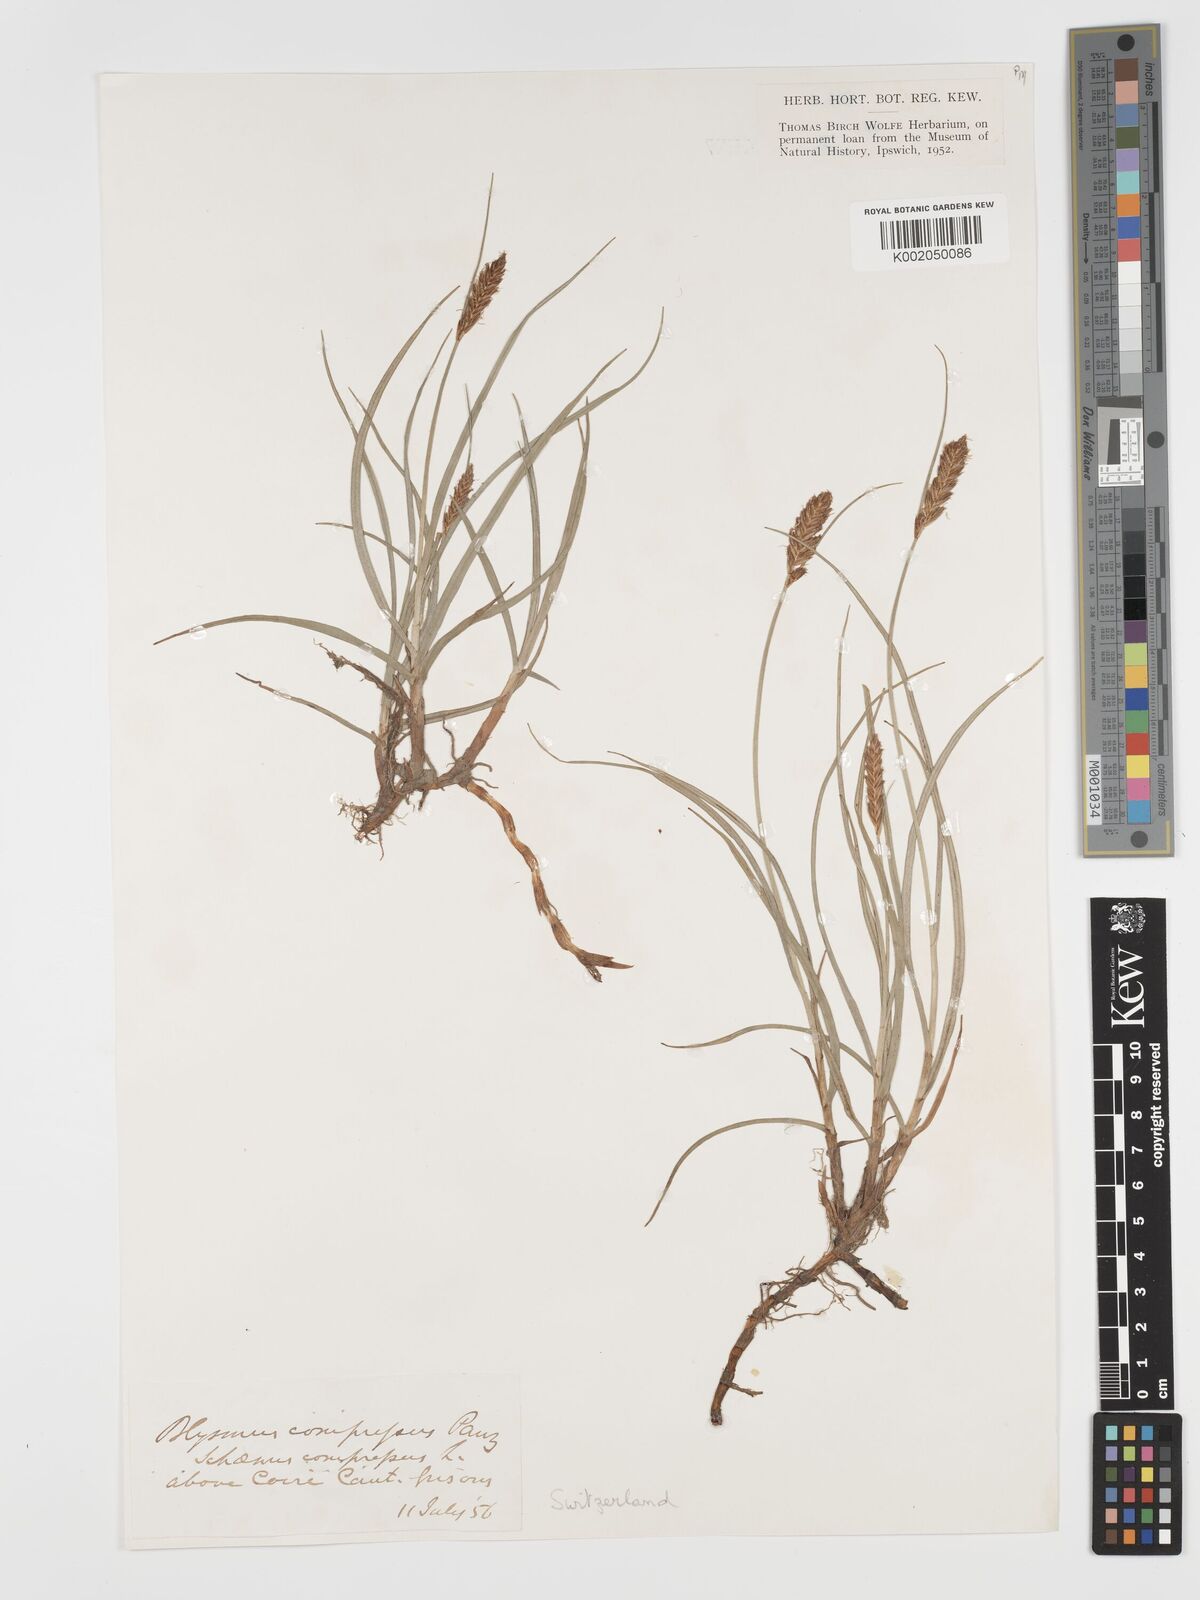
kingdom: Plantae
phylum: Tracheophyta
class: Liliopsida
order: Poales
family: Cyperaceae
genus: Blysmus
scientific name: Blysmus compressus
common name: Flat-sedge
